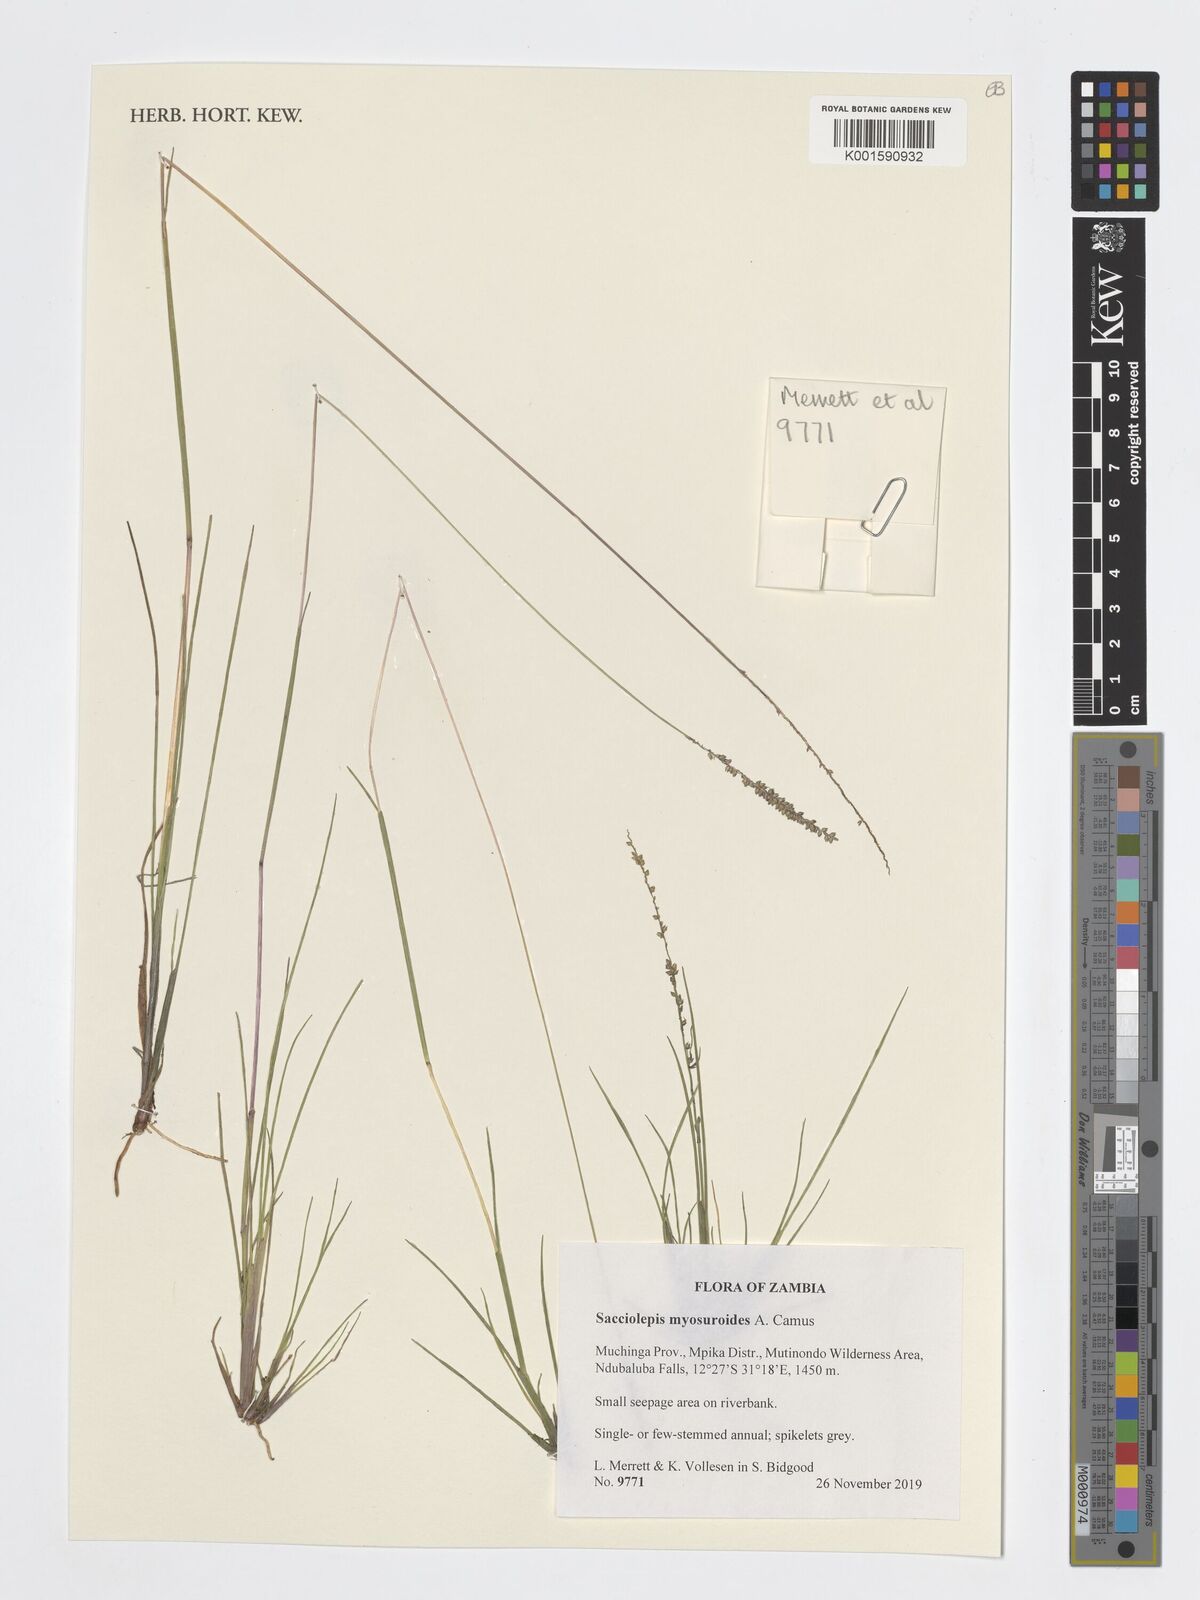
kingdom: Plantae
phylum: Tracheophyta
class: Liliopsida
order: Poales
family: Poaceae
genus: Sacciolepis
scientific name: Sacciolepis myosuroides
